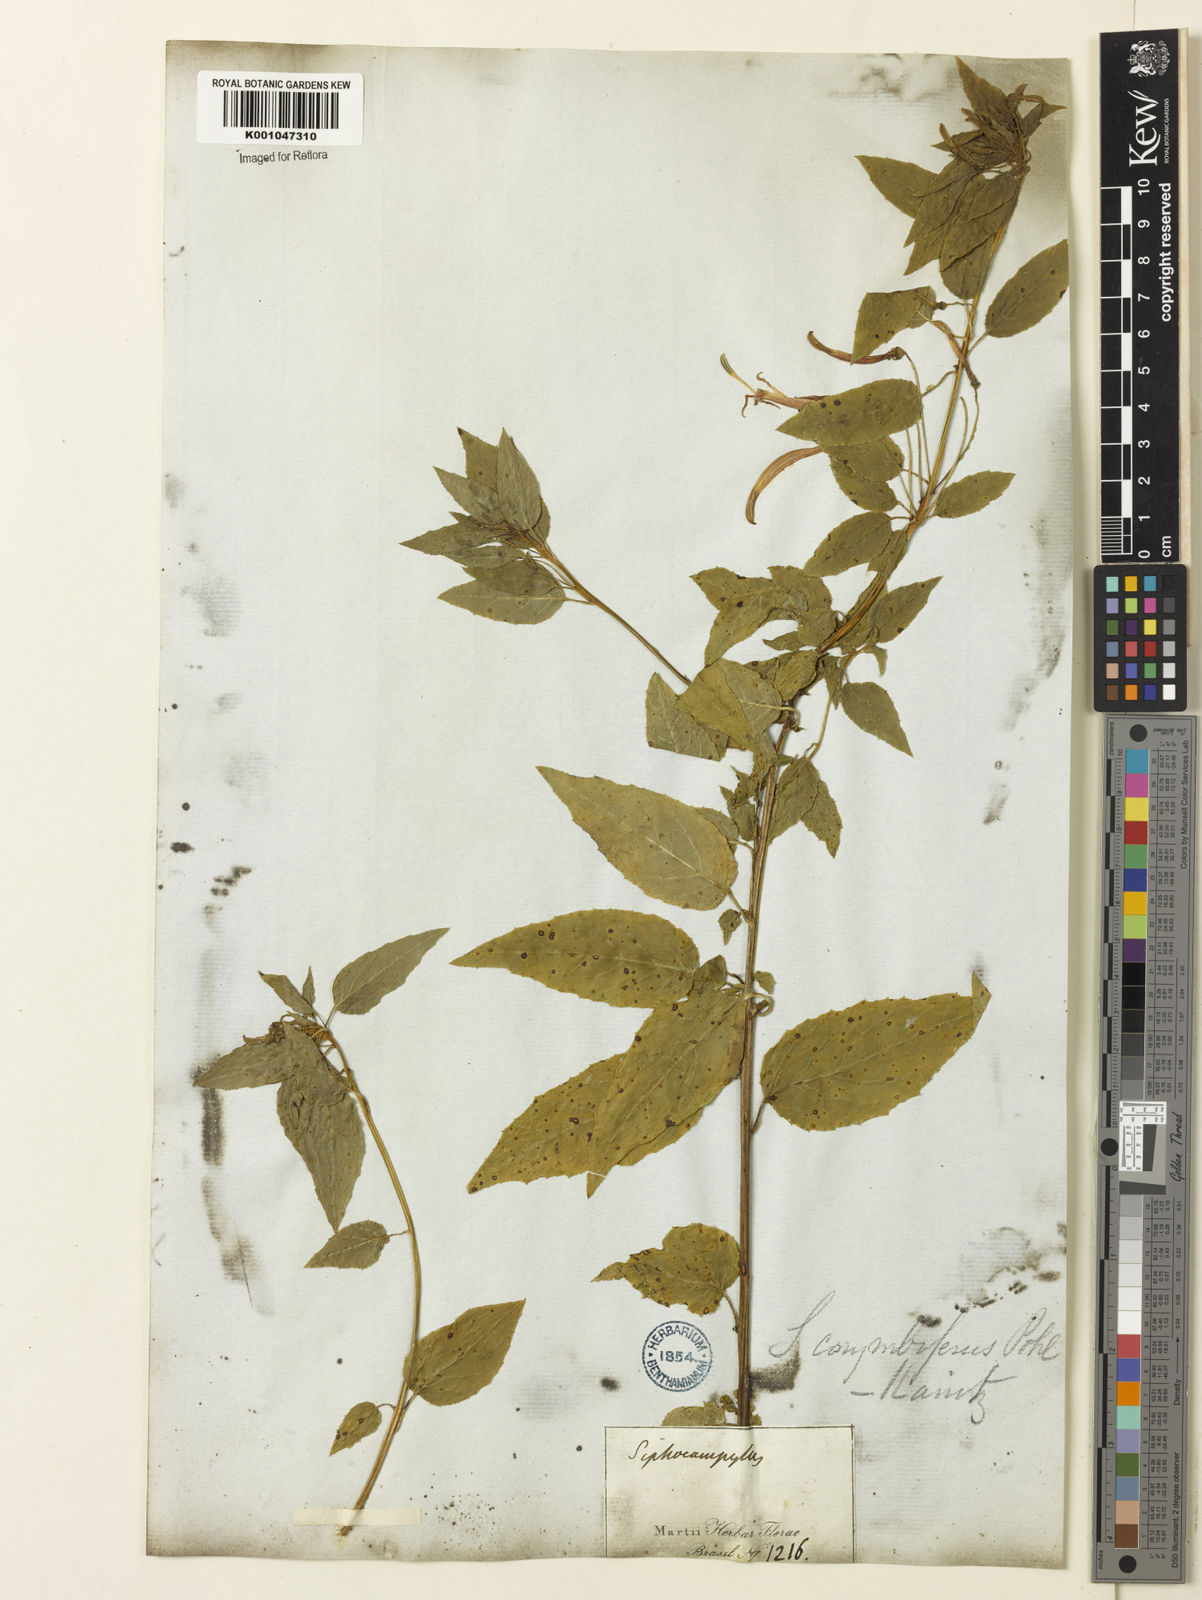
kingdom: Plantae
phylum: Tracheophyta
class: Magnoliopsida
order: Asterales
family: Campanulaceae
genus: Siphocampylus
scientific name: Siphocampylus corymbifer
